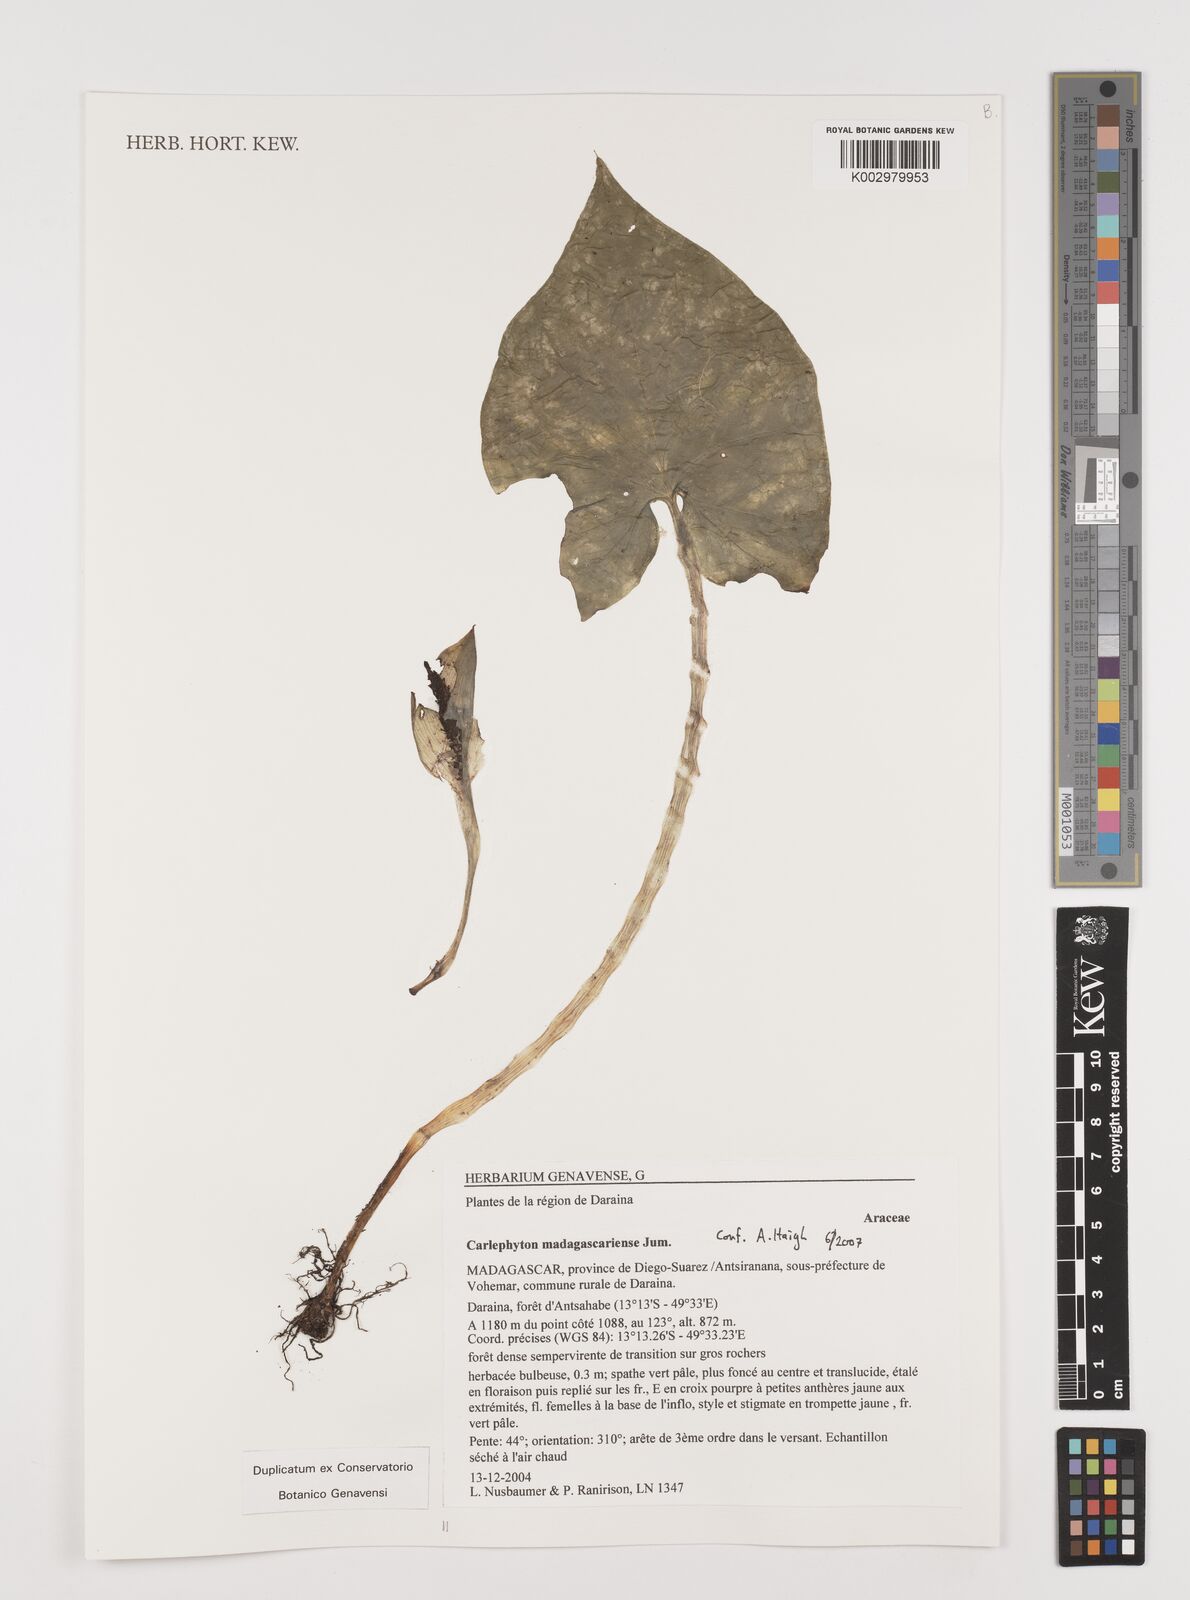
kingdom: Plantae
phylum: Tracheophyta
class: Liliopsida
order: Alismatales
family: Araceae
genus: Carlephyton
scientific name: Carlephyton madagascariense
